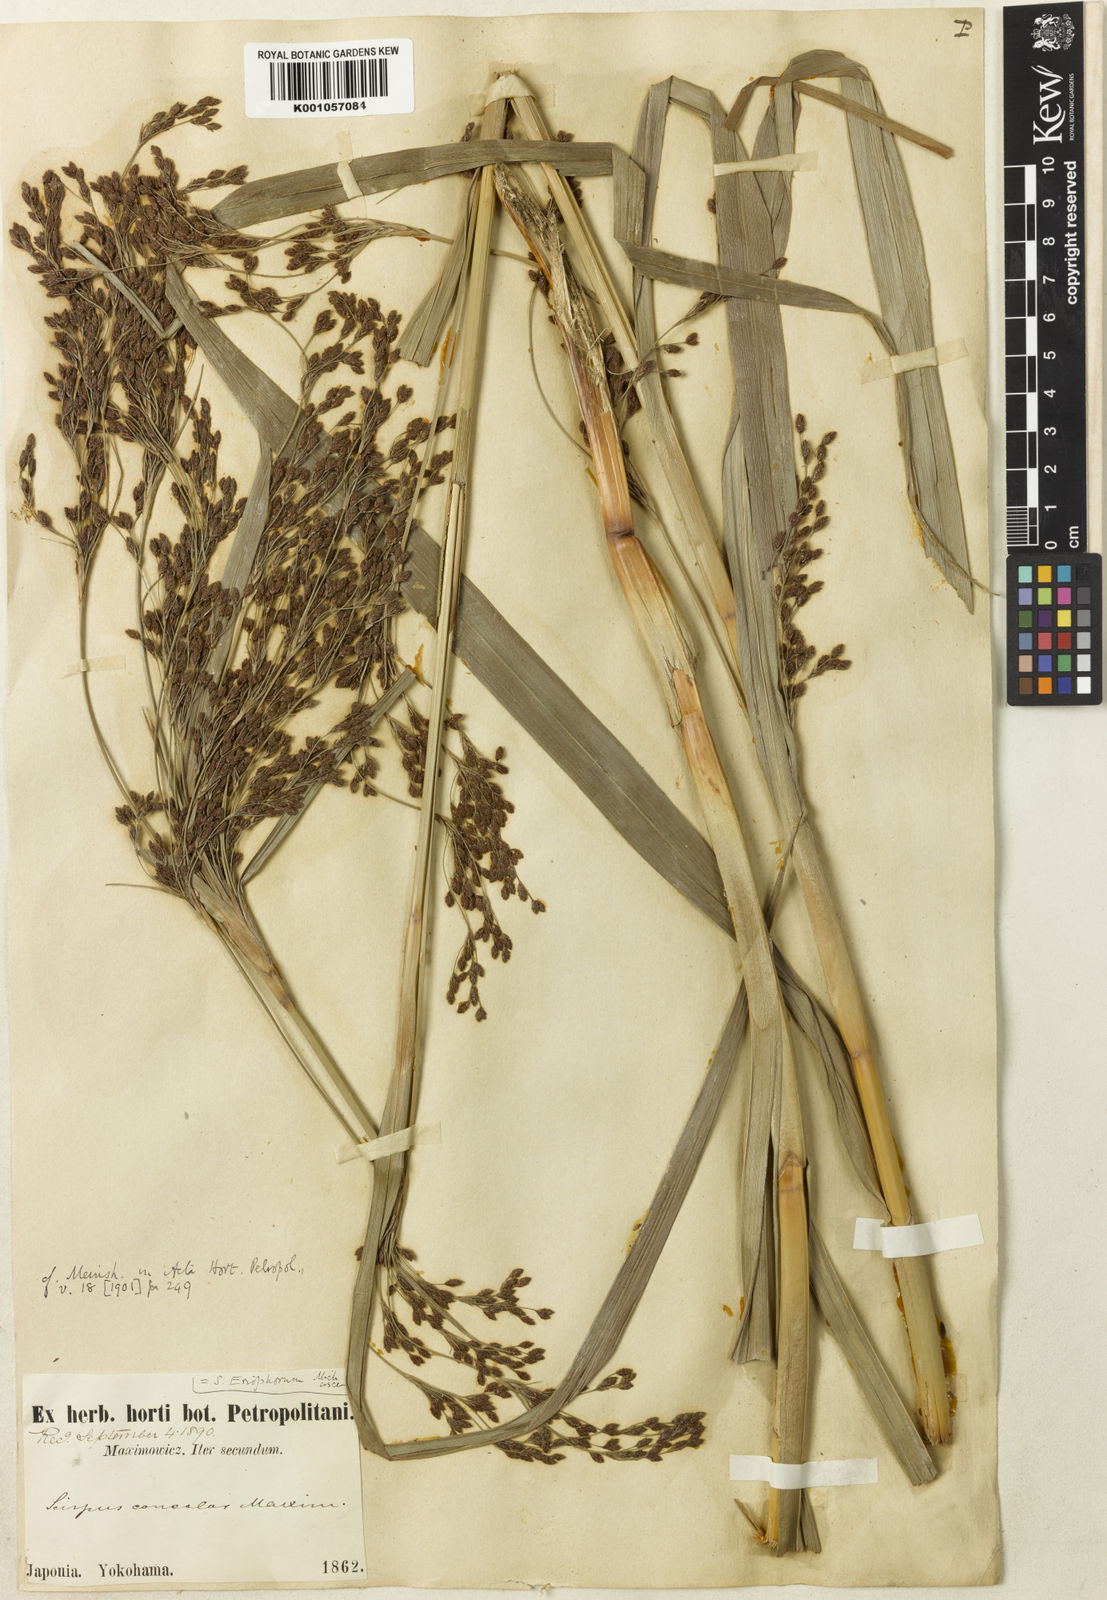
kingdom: Plantae
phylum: Tracheophyta
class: Liliopsida
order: Poales
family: Cyperaceae
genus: Scirpus
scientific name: Scirpus cyperinus
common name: Black-sheathed bulrush
